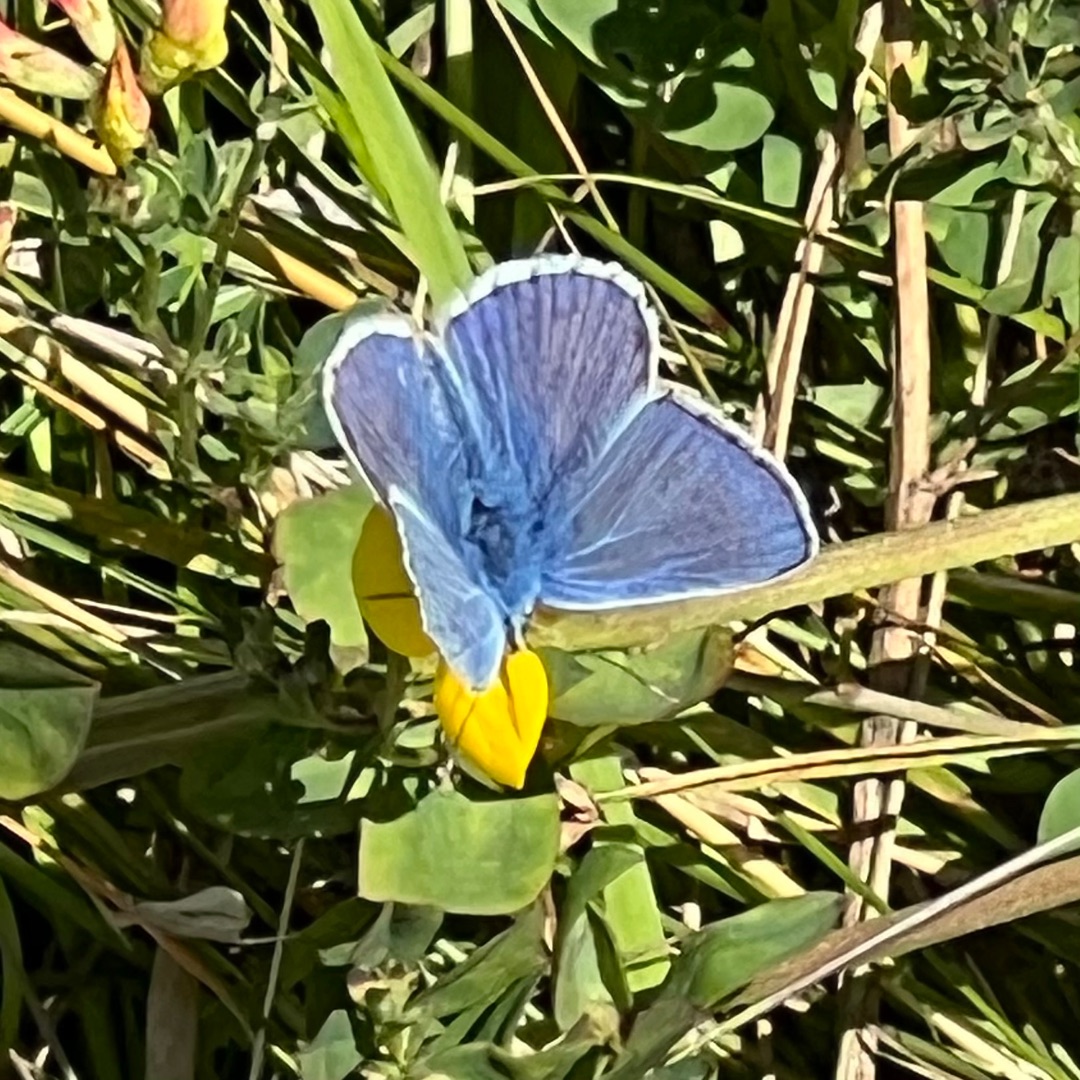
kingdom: Animalia
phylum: Arthropoda
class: Insecta
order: Lepidoptera
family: Lycaenidae
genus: Polyommatus
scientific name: Polyommatus icarus
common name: Almindelig blåfugl
